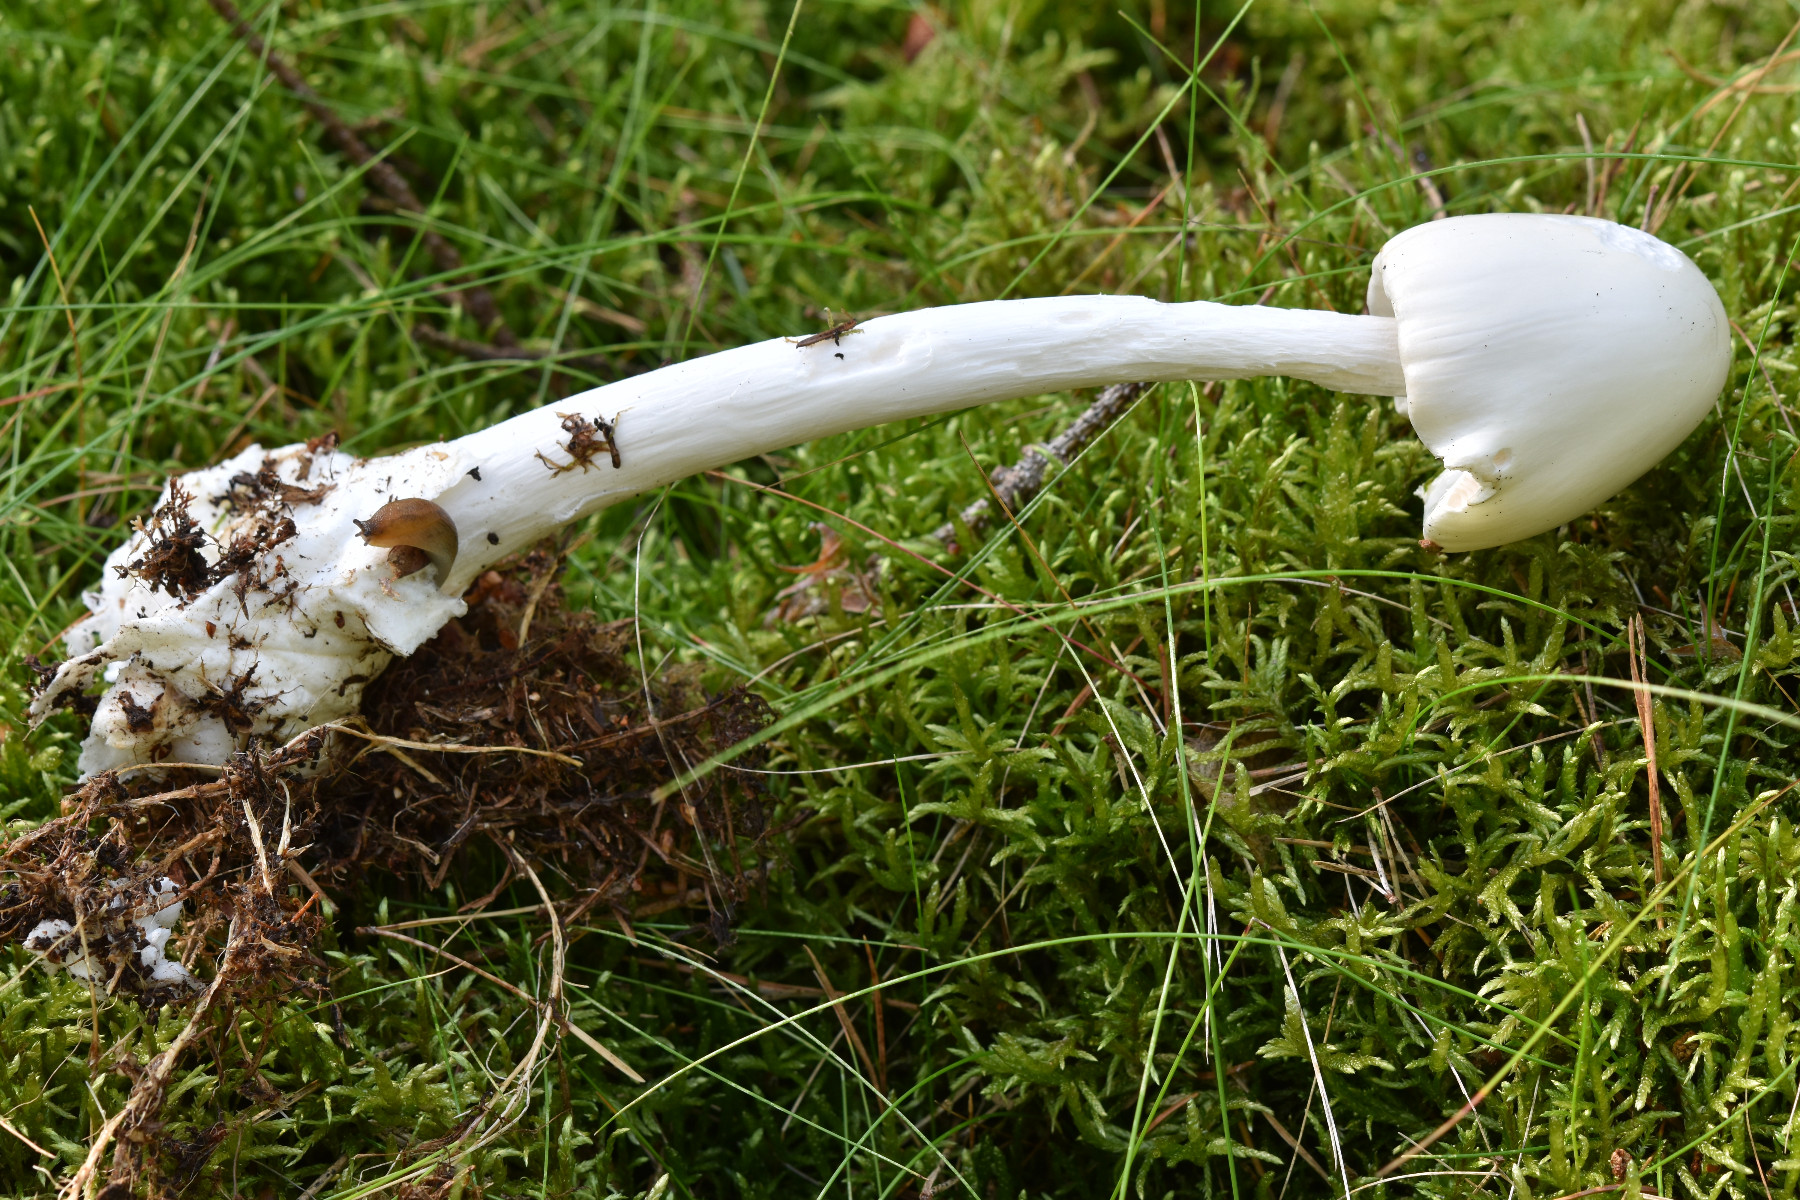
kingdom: Fungi
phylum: Basidiomycota
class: Agaricomycetes
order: Agaricales
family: Amanitaceae
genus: Amanita
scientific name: Amanita virosa
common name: snehvid fluesvamp
